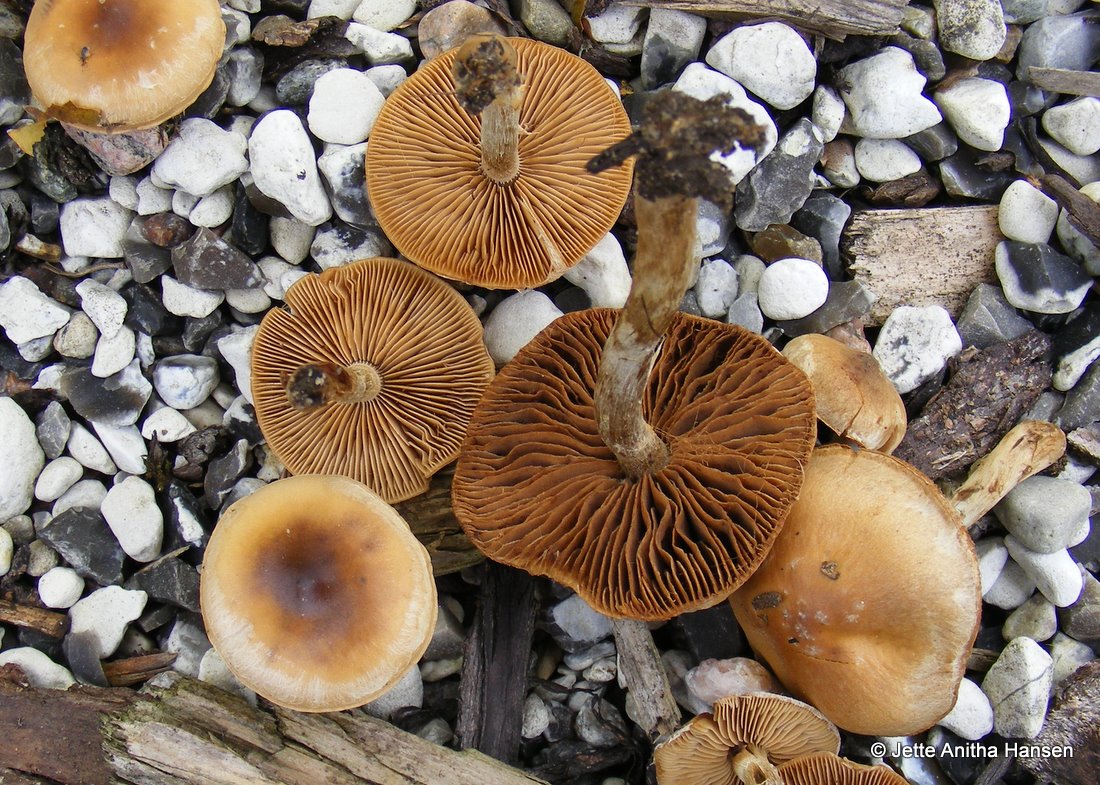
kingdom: Fungi
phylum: Basidiomycota
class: Agaricomycetes
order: Agaricales
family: Hymenogastraceae
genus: Galerina
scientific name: Galerina marginata
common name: randbæltet hjelmhat
